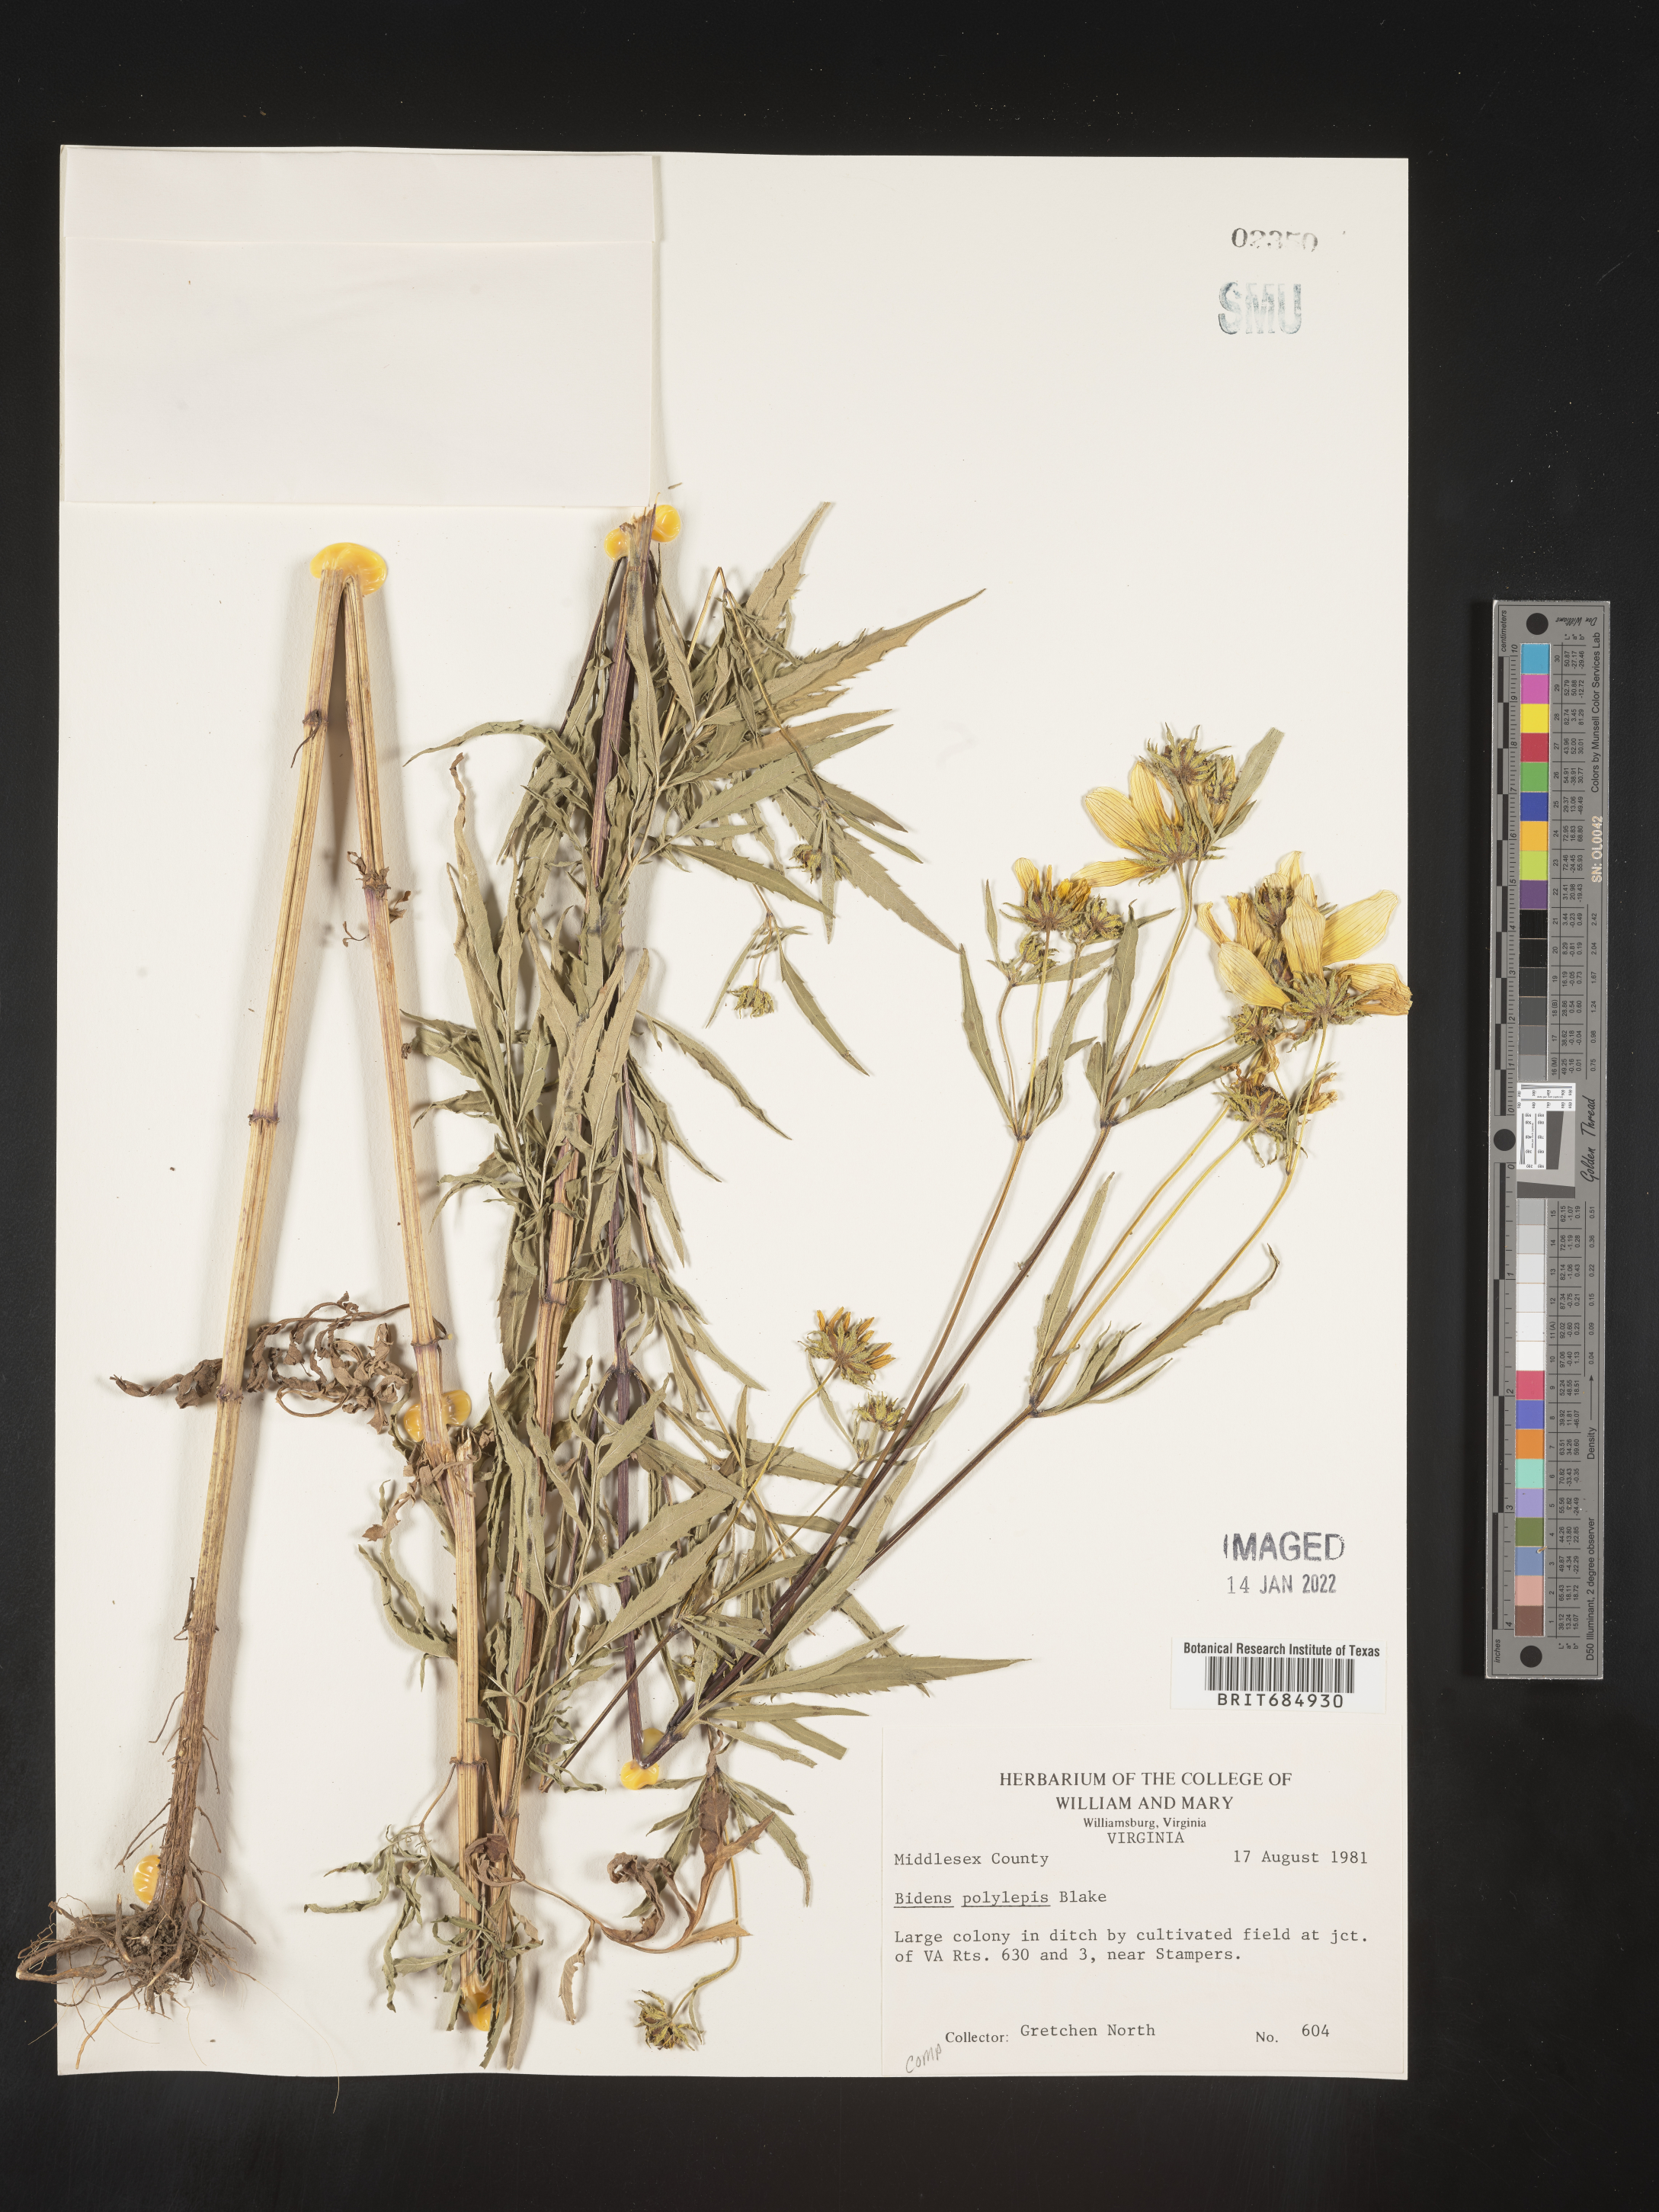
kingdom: Plantae
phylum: Tracheophyta
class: Magnoliopsida
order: Asterales
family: Asteraceae
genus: Bidens
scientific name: Bidens polylepis
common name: Awnless beggarticks
